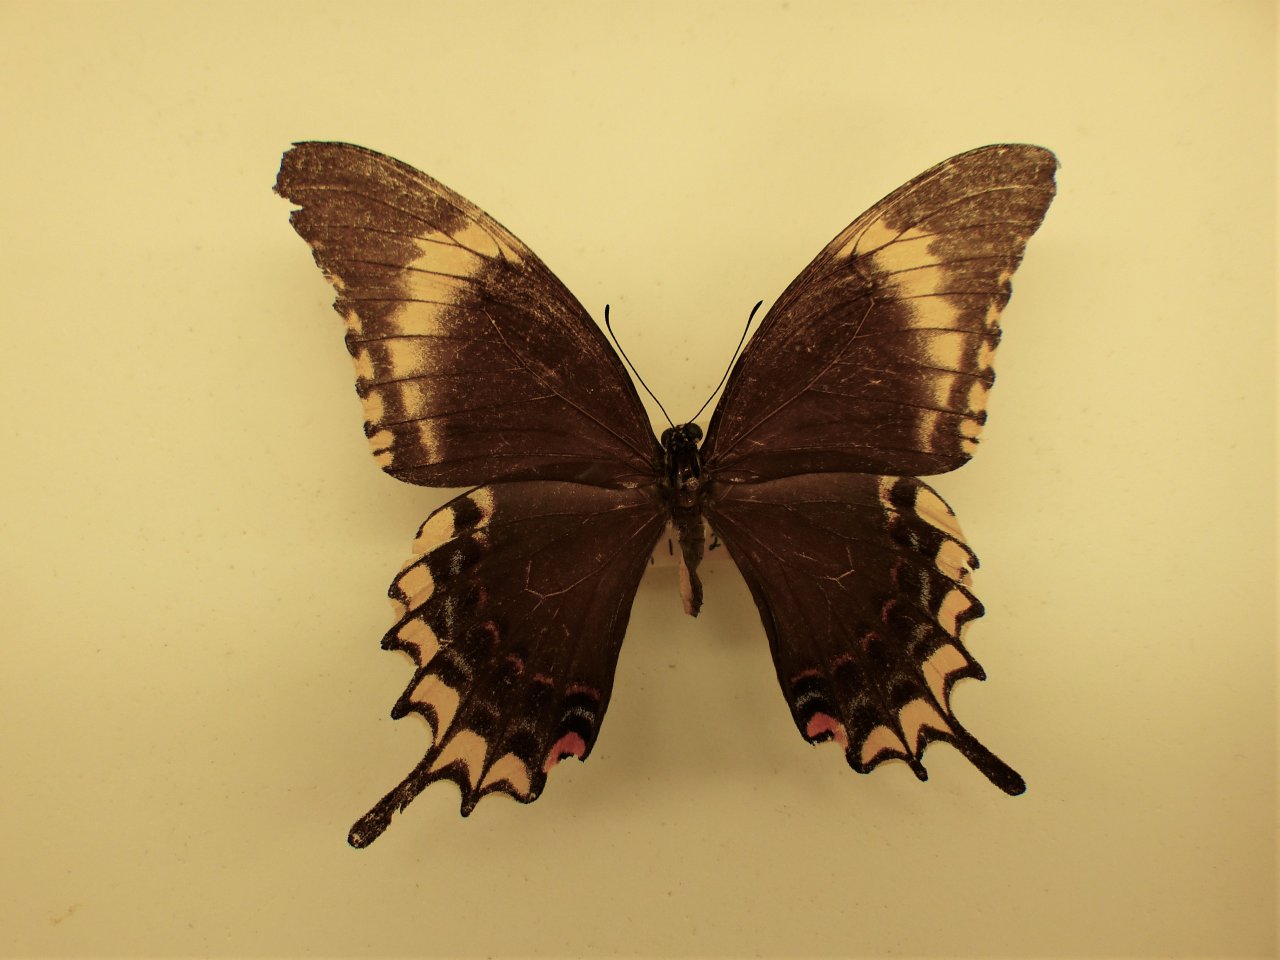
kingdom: Animalia
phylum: Arthropoda
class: Insecta
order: Lepidoptera
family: Papilionidae
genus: Papilio
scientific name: Papilio thersites
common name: False Androgeus Swallowtail
